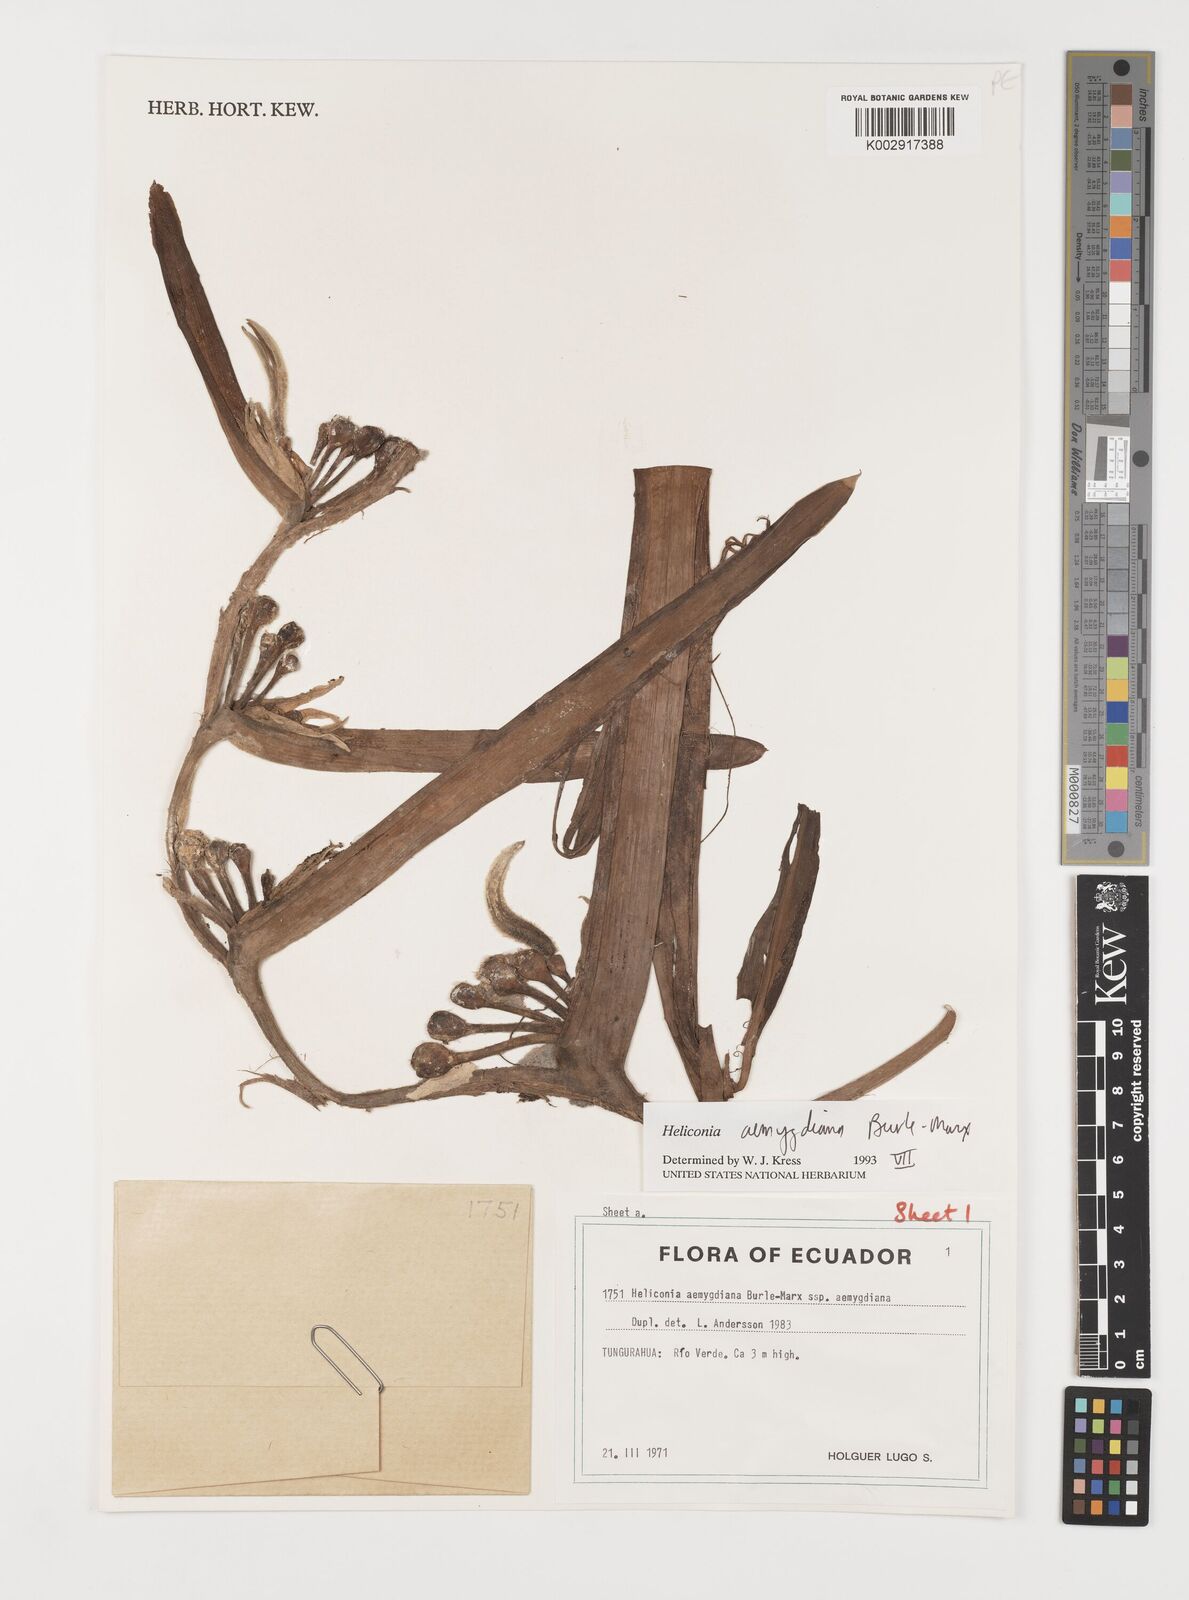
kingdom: Plantae
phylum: Tracheophyta
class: Liliopsida
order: Zingiberales
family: Heliconiaceae
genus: Heliconia
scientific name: Heliconia aemygdiana
